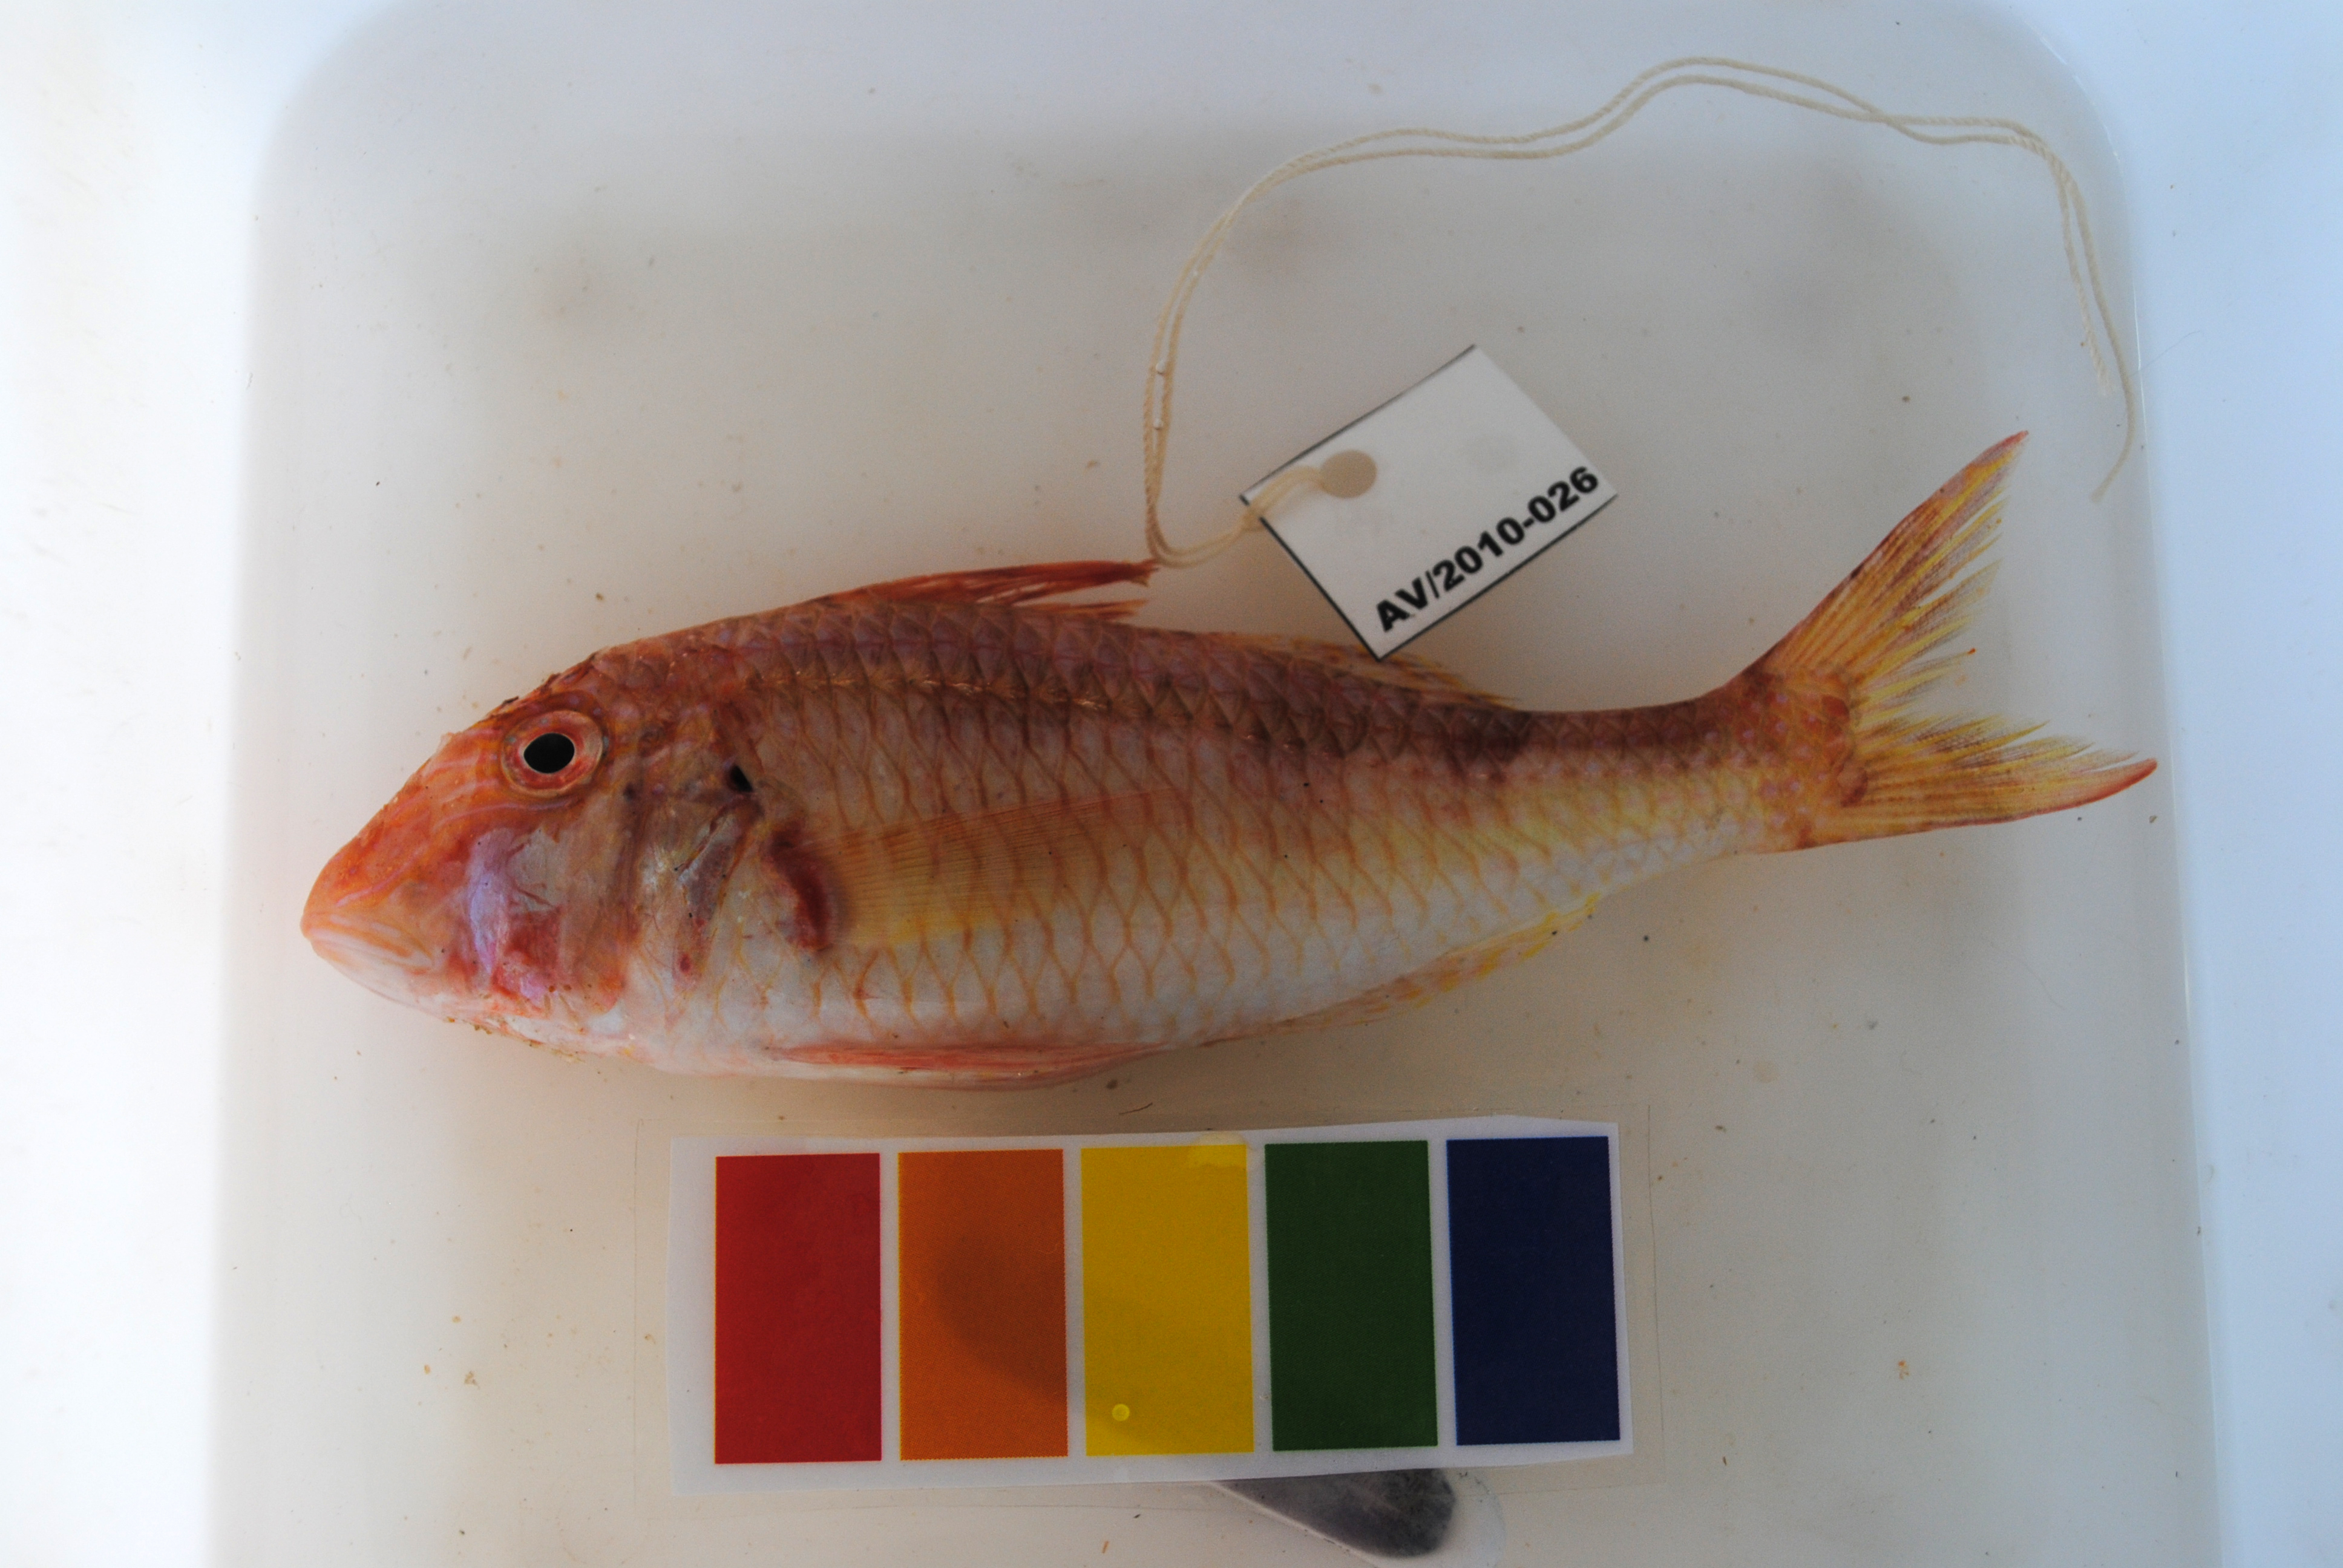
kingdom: Animalia
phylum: Chordata
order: Perciformes
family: Mullidae
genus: Parupeneus
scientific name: Parupeneus fraserorum
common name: Fraser’s goatfish
